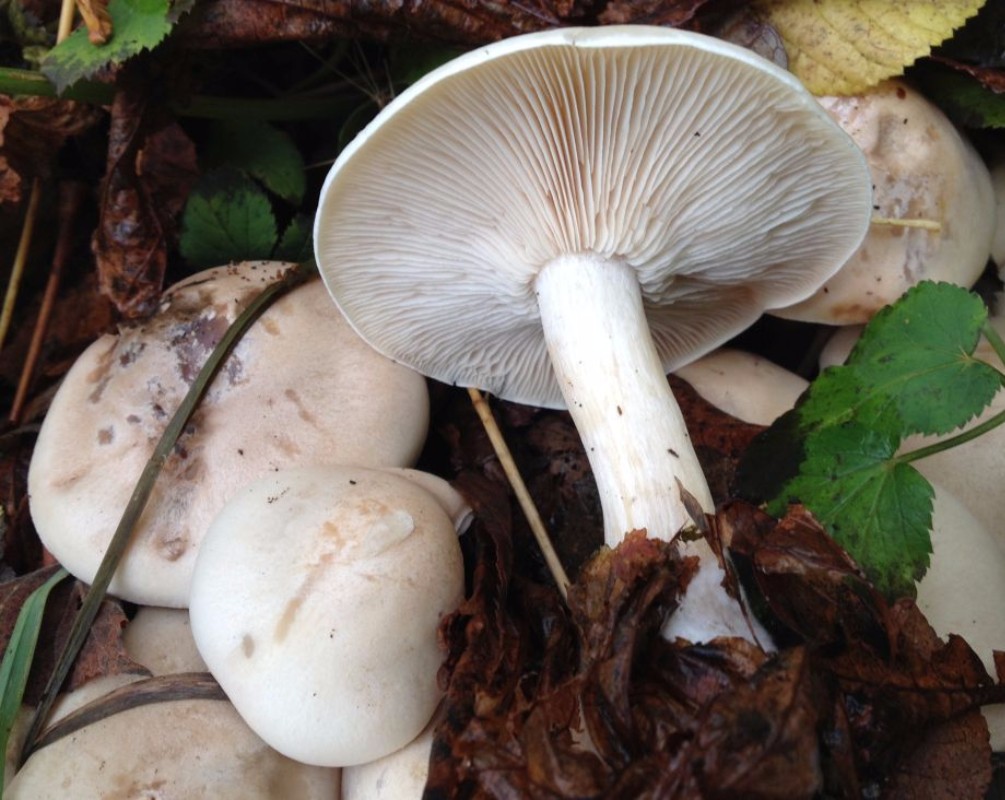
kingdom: Fungi
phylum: Basidiomycota
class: Agaricomycetes
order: Agaricales
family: Tricholomataceae
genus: Tricholoma
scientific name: Tricholoma stiparophyllum
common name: hvid ridderhat
